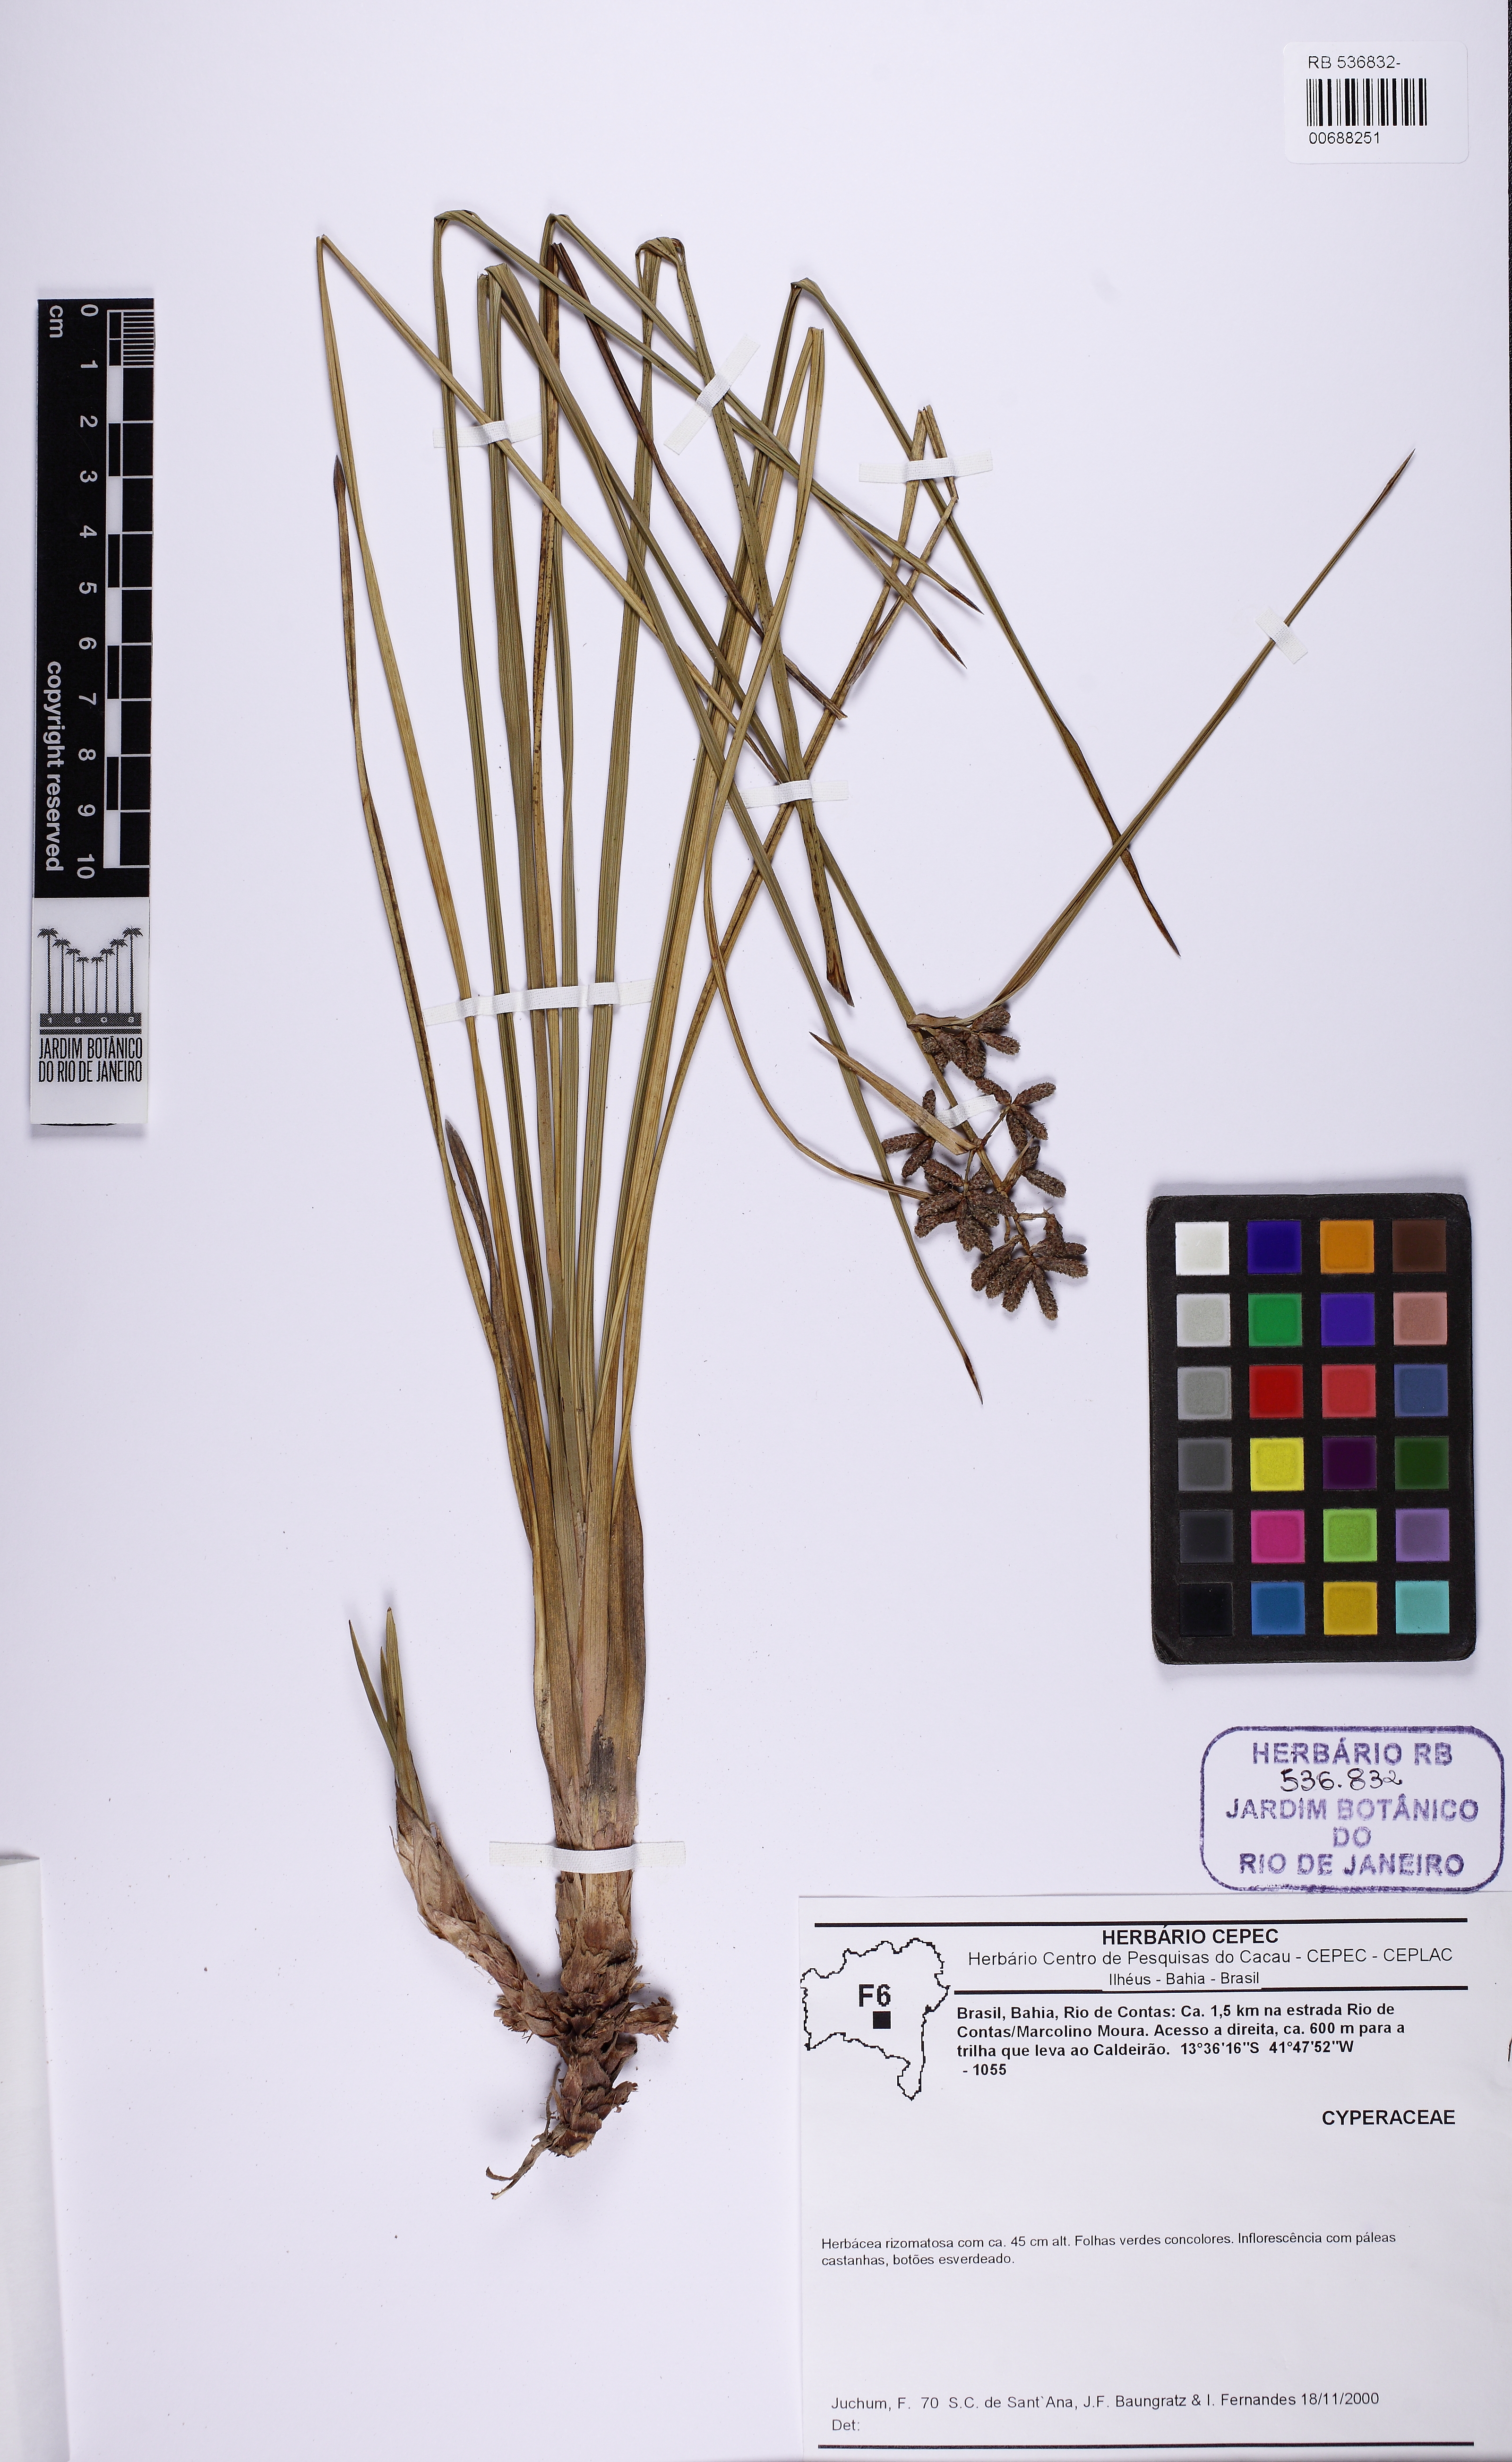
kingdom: Plantae
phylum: Tracheophyta
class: Liliopsida
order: Poales
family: Cyperaceae
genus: Hypolytrum
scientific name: Hypolytrum supervacuum
